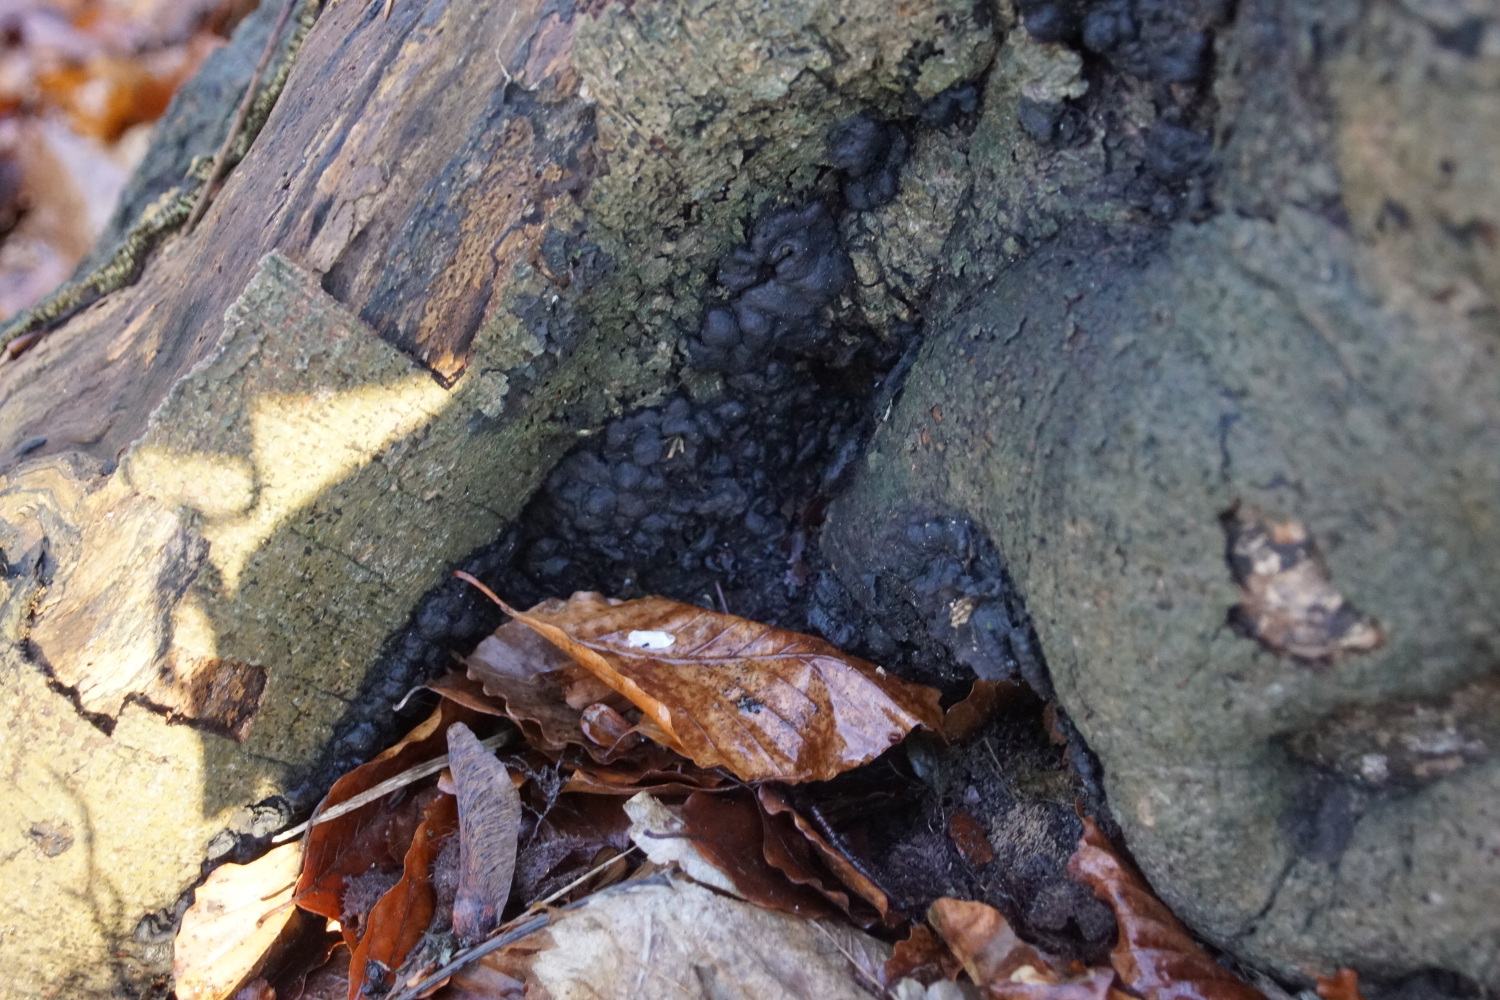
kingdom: Fungi
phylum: Ascomycota
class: Sordariomycetes
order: Xylariales
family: Xylariaceae
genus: Kretzschmaria
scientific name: Kretzschmaria deusta
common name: stor kulsvamp
